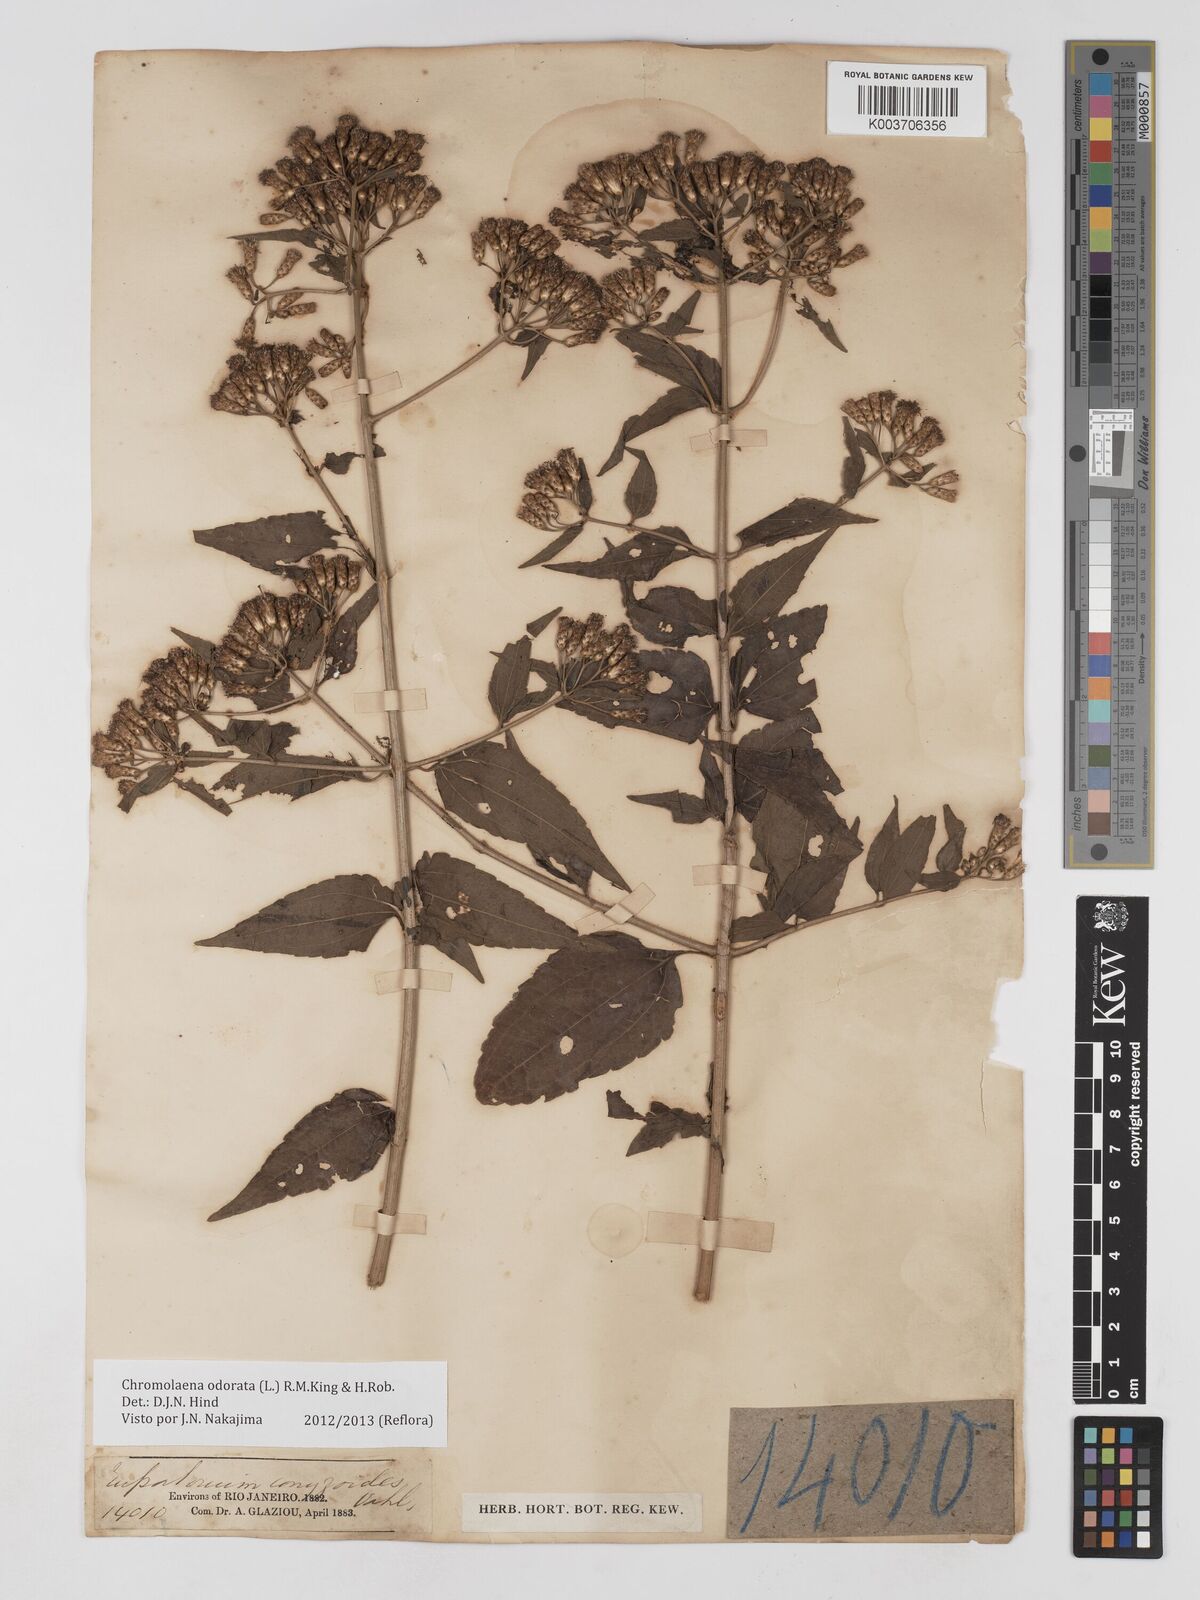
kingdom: Plantae
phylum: Tracheophyta
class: Magnoliopsida
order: Asterales
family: Asteraceae
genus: Chromolaena
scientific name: Chromolaena odorata
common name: Siamweed
